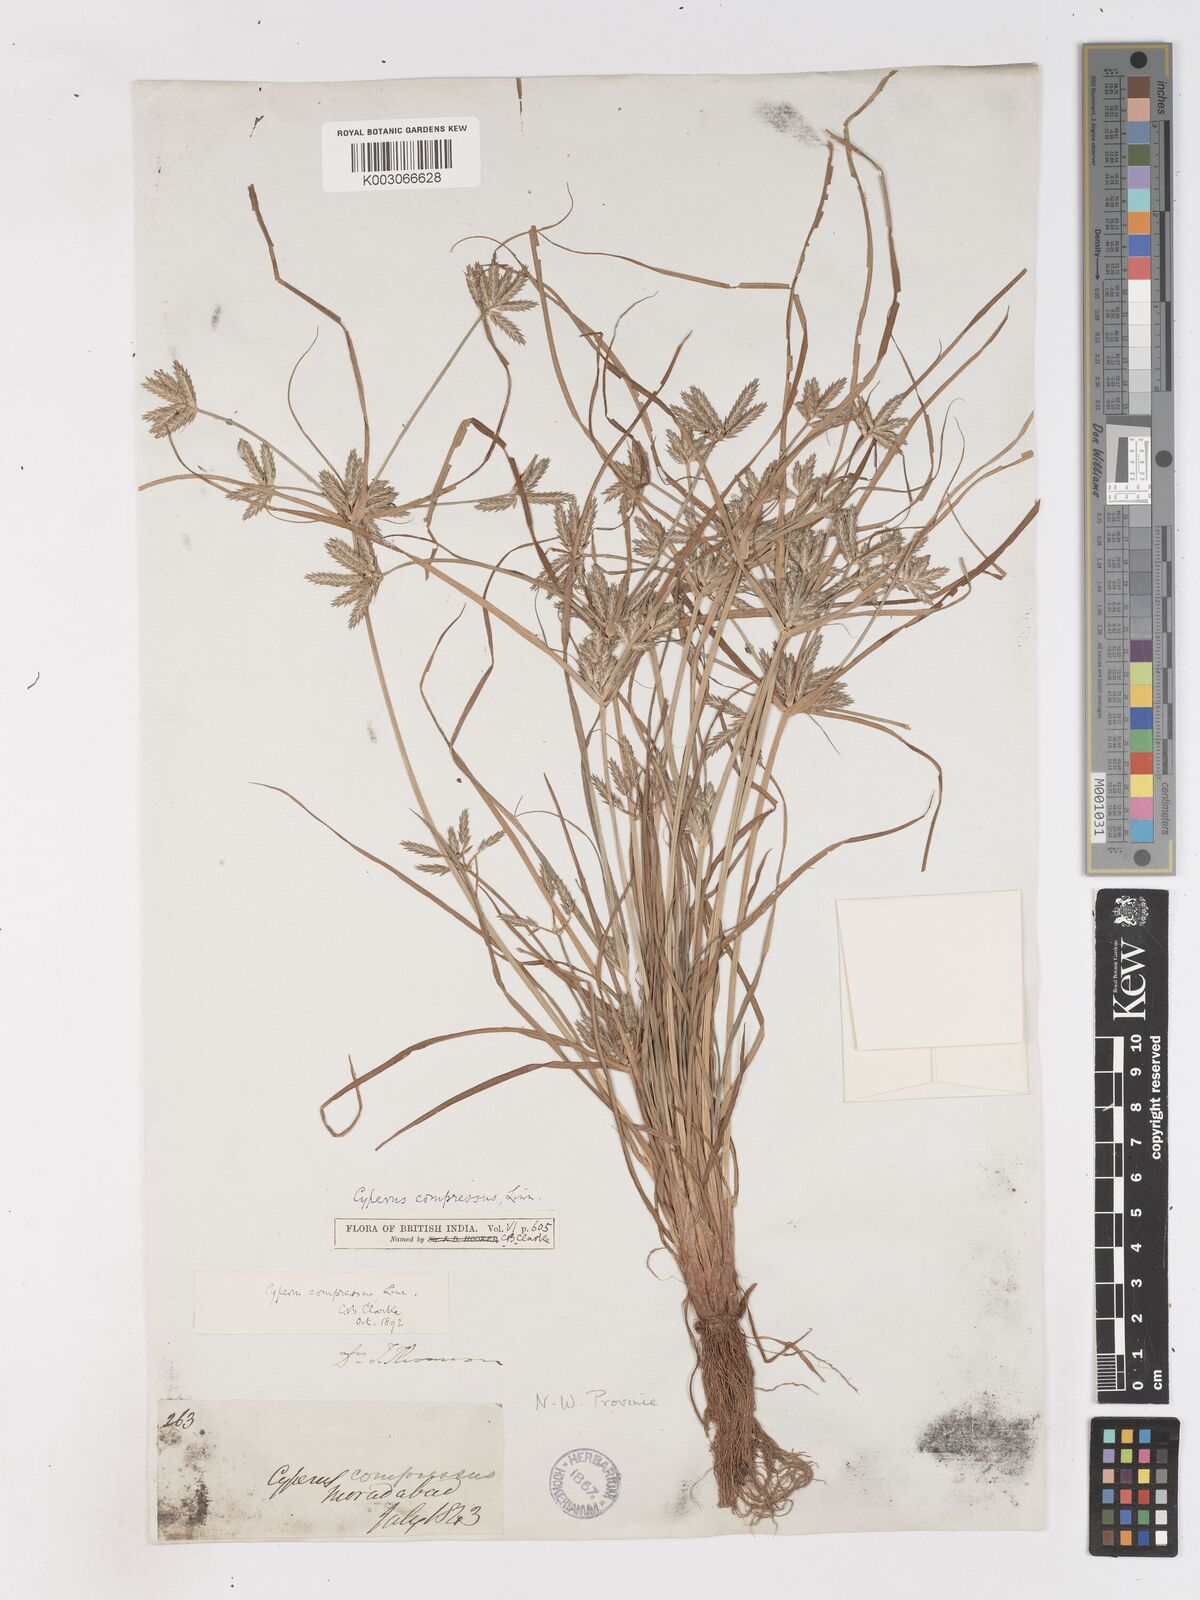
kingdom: Plantae
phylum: Tracheophyta
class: Liliopsida
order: Poales
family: Cyperaceae
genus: Cyperus
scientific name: Cyperus compressus
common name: Poorland flatsedge
